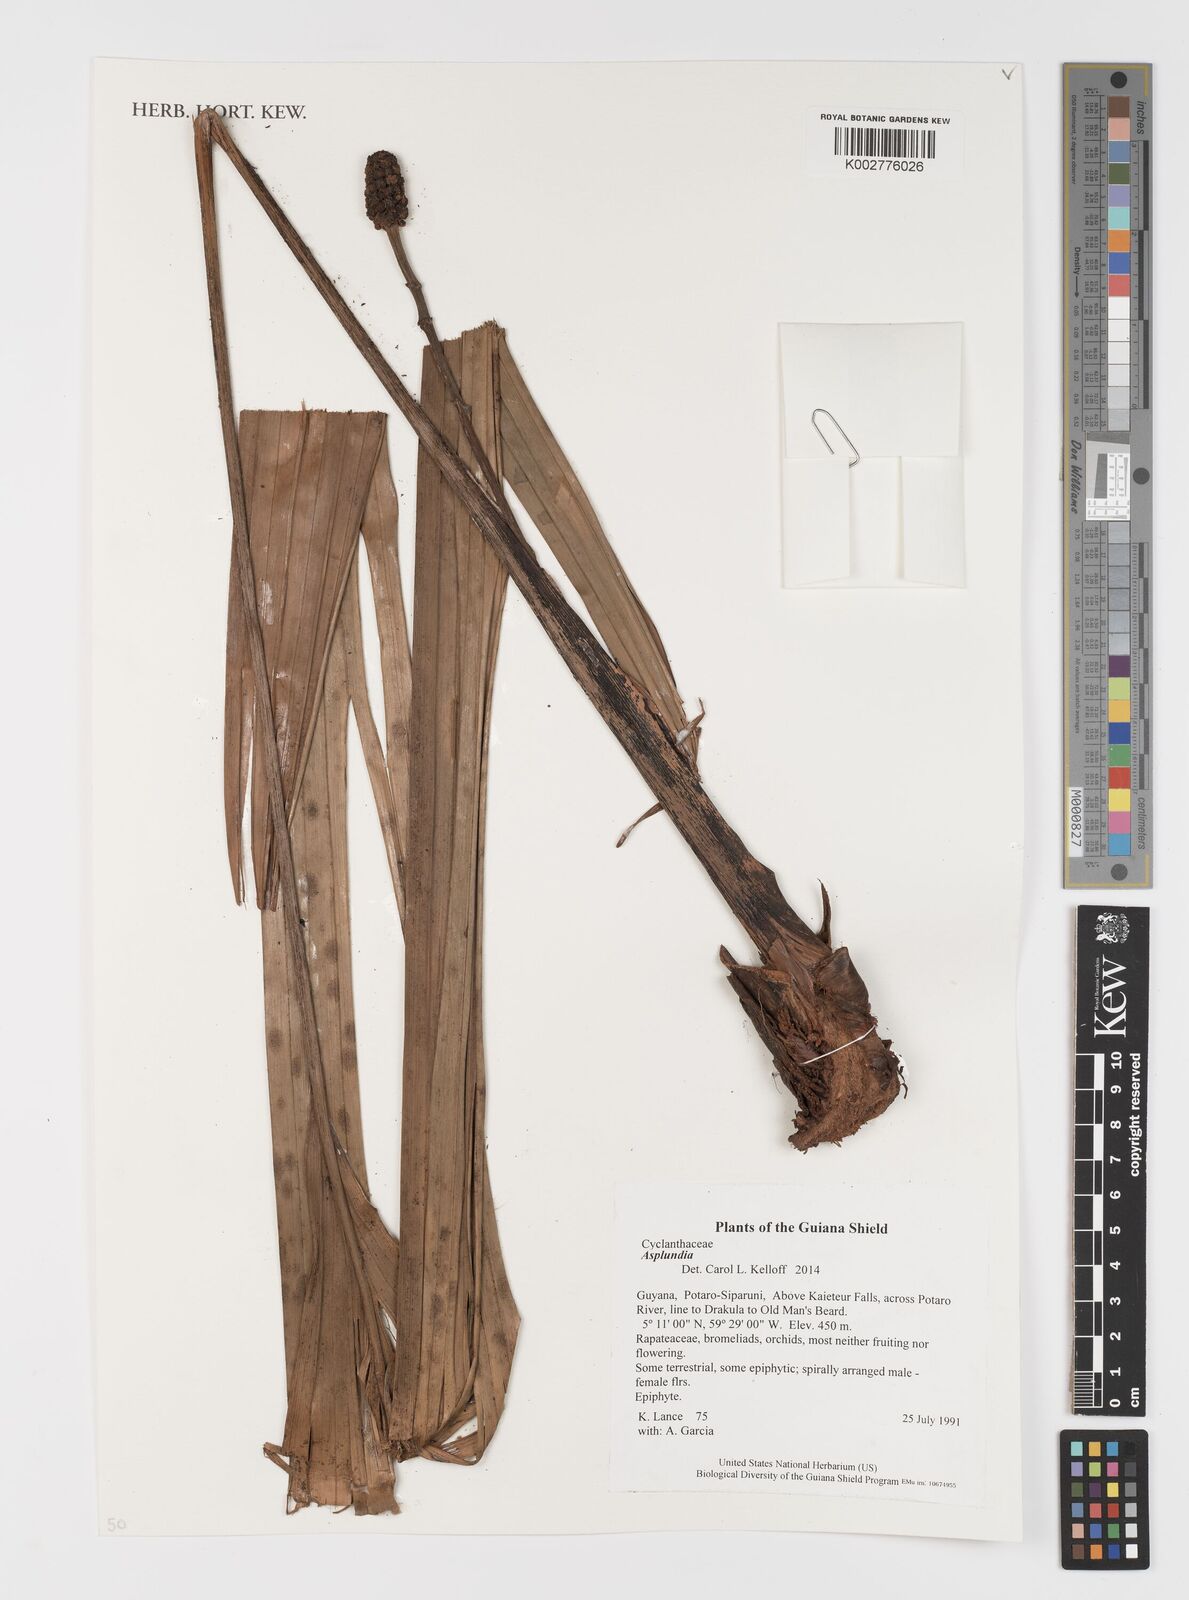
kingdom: Plantae
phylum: Tracheophyta
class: Liliopsida
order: Pandanales
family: Cyclanthaceae
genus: Asplundia
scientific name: Asplundia
